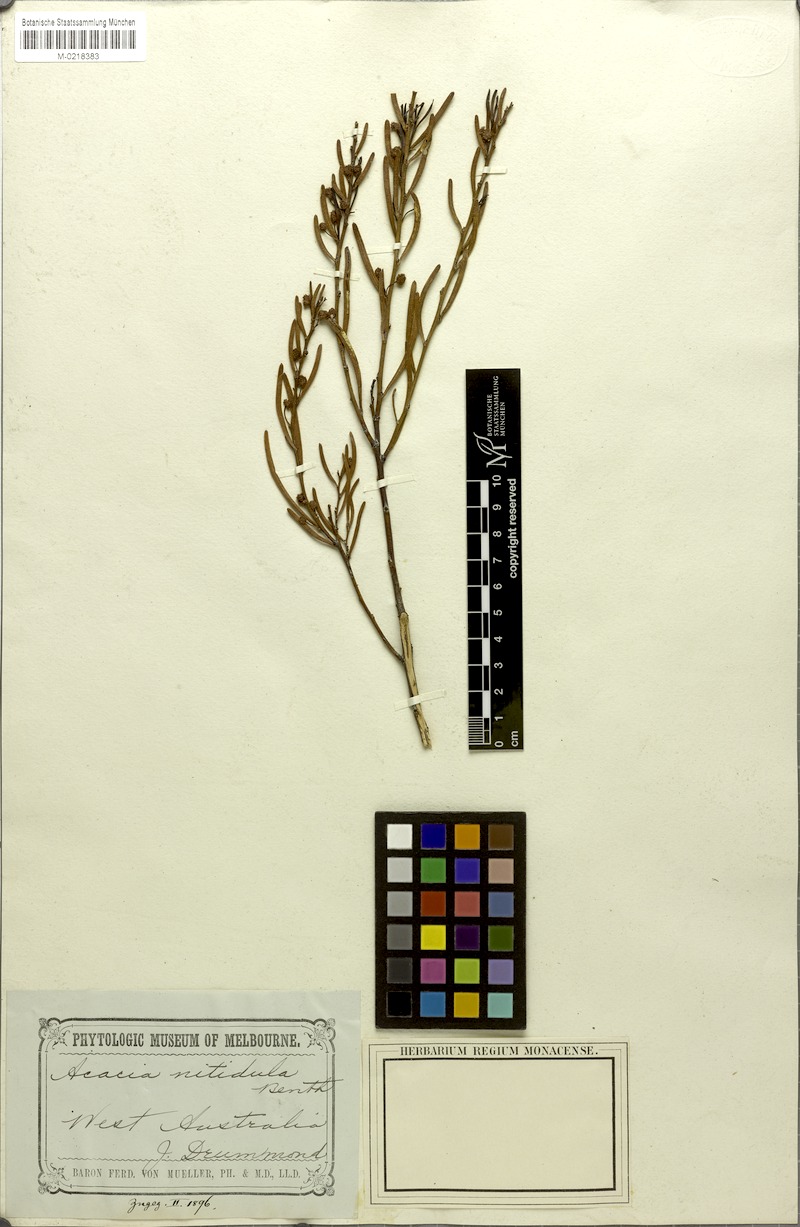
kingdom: Plantae
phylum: Tracheophyta
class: Magnoliopsida
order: Fabales
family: Fabaceae
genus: Acacia
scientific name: Acacia nitidula
